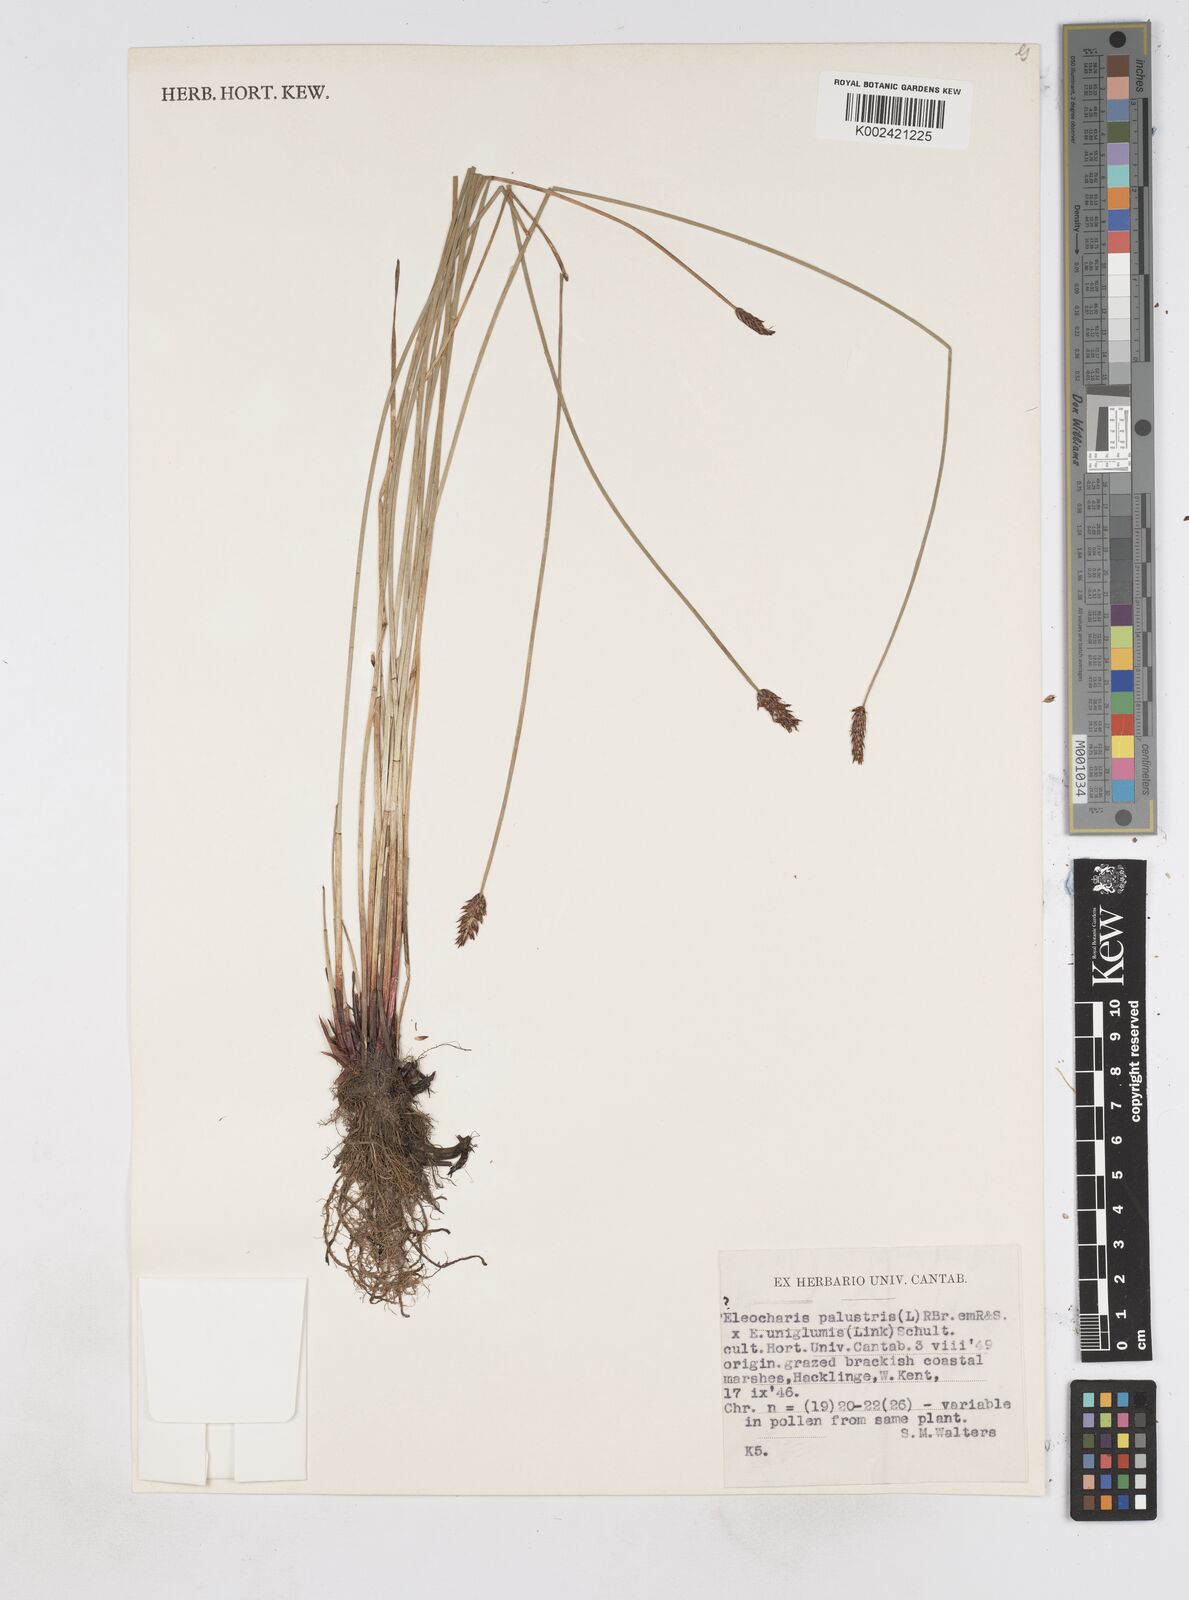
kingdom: Plantae
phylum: Tracheophyta
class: Liliopsida
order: Poales
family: Cyperaceae
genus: Eleocharis
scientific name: Eleocharis palustris
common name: Common spike-rush
